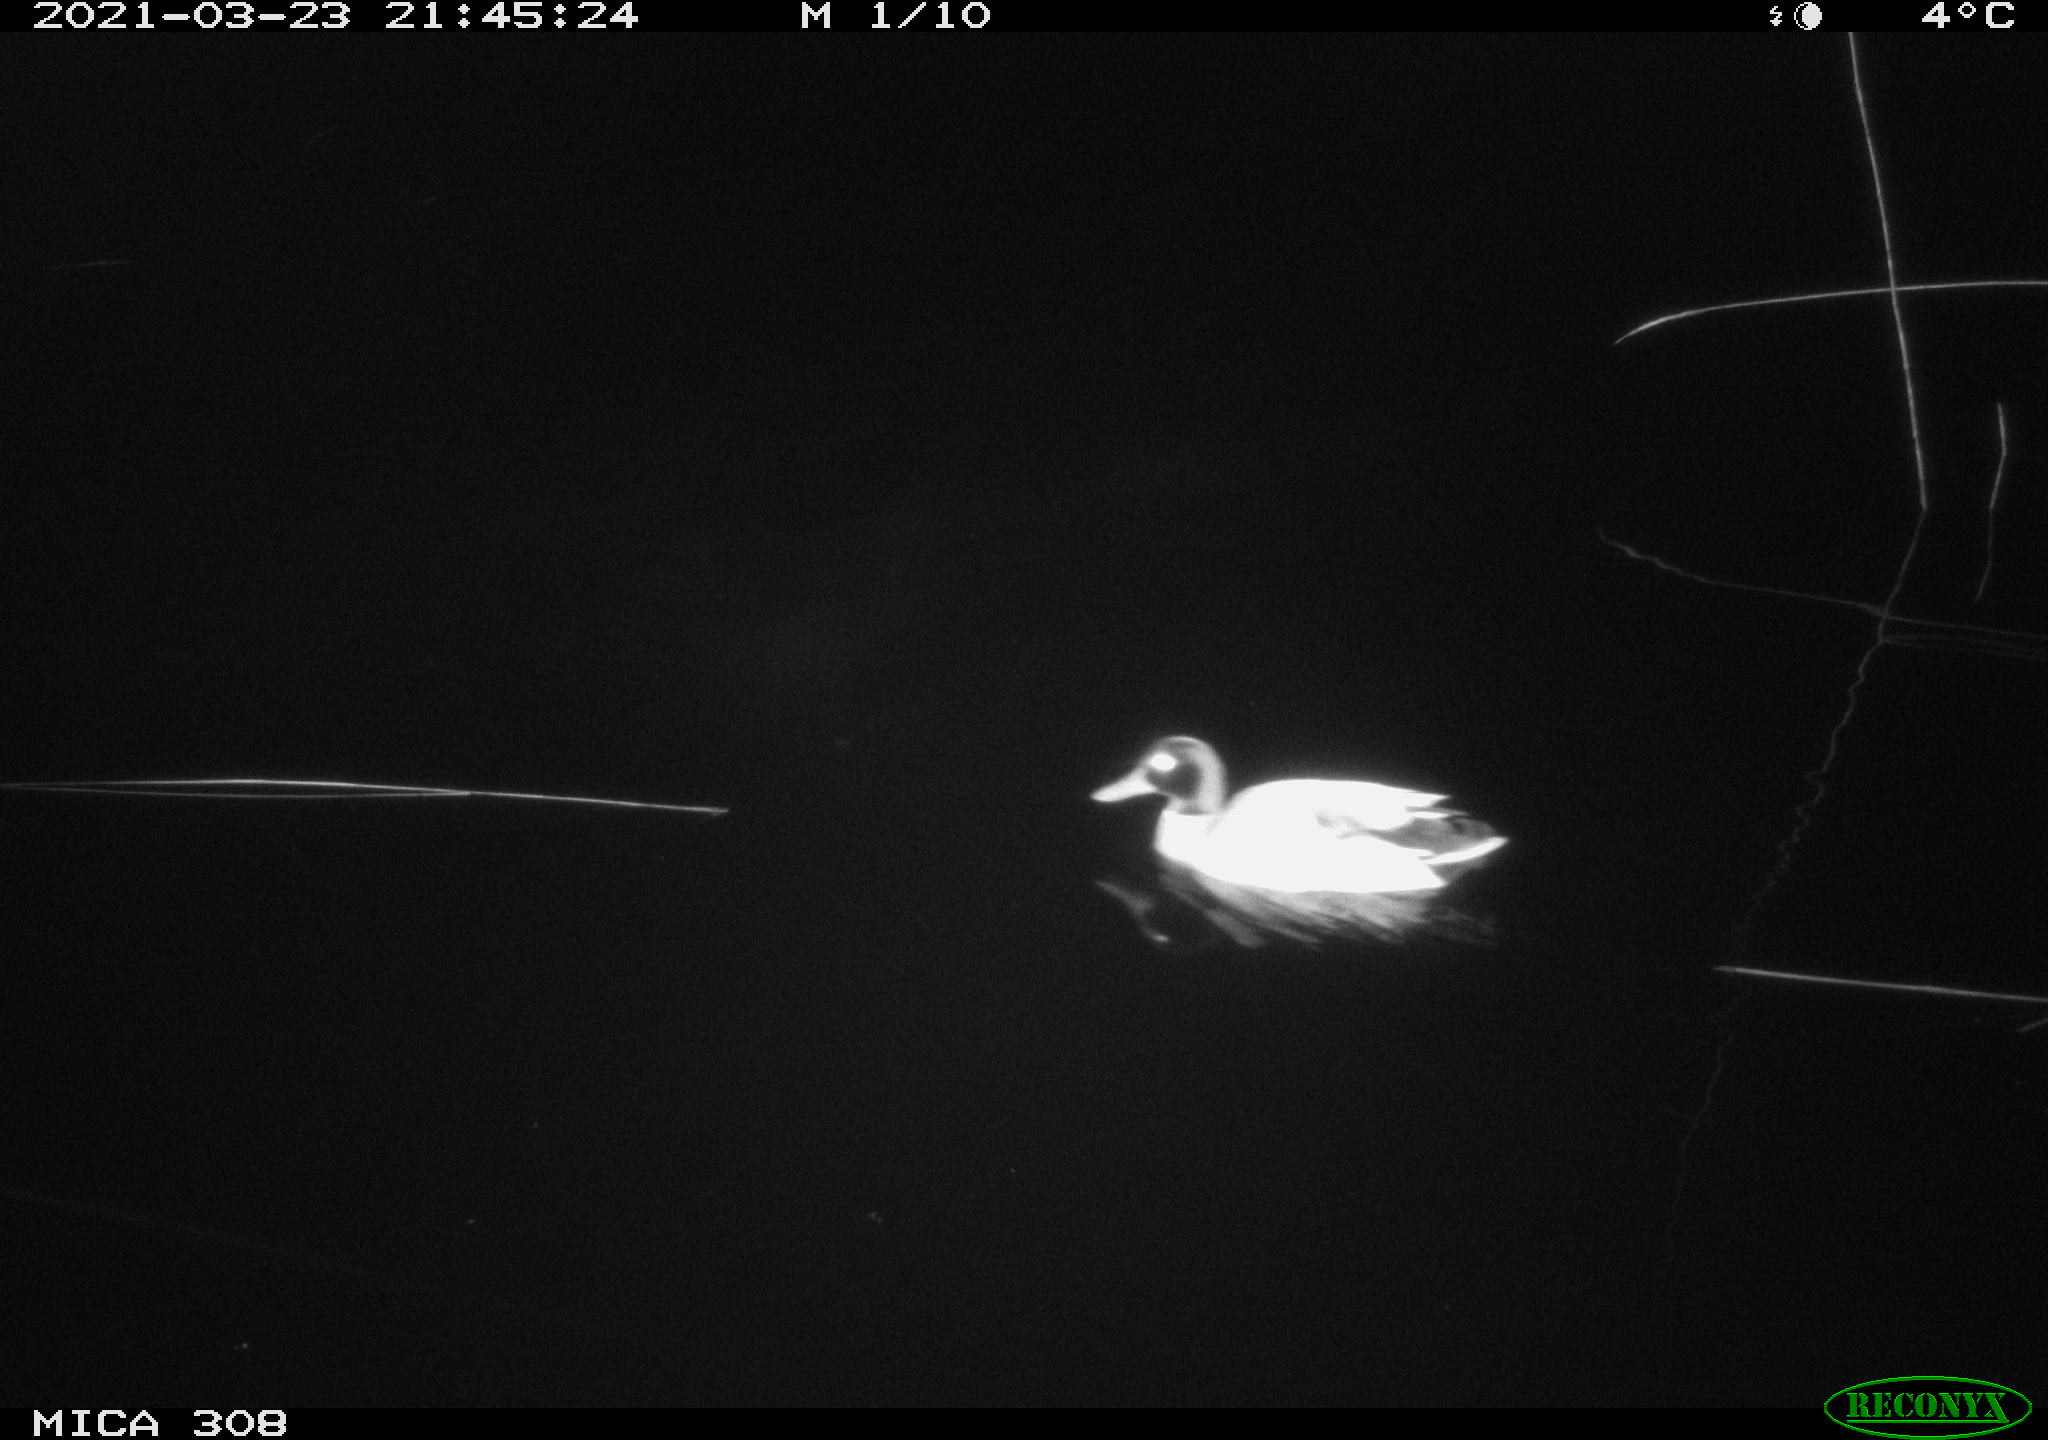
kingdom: Animalia
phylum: Chordata
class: Aves
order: Anseriformes
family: Anatidae
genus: Anas
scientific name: Anas platyrhynchos
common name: Mallard
